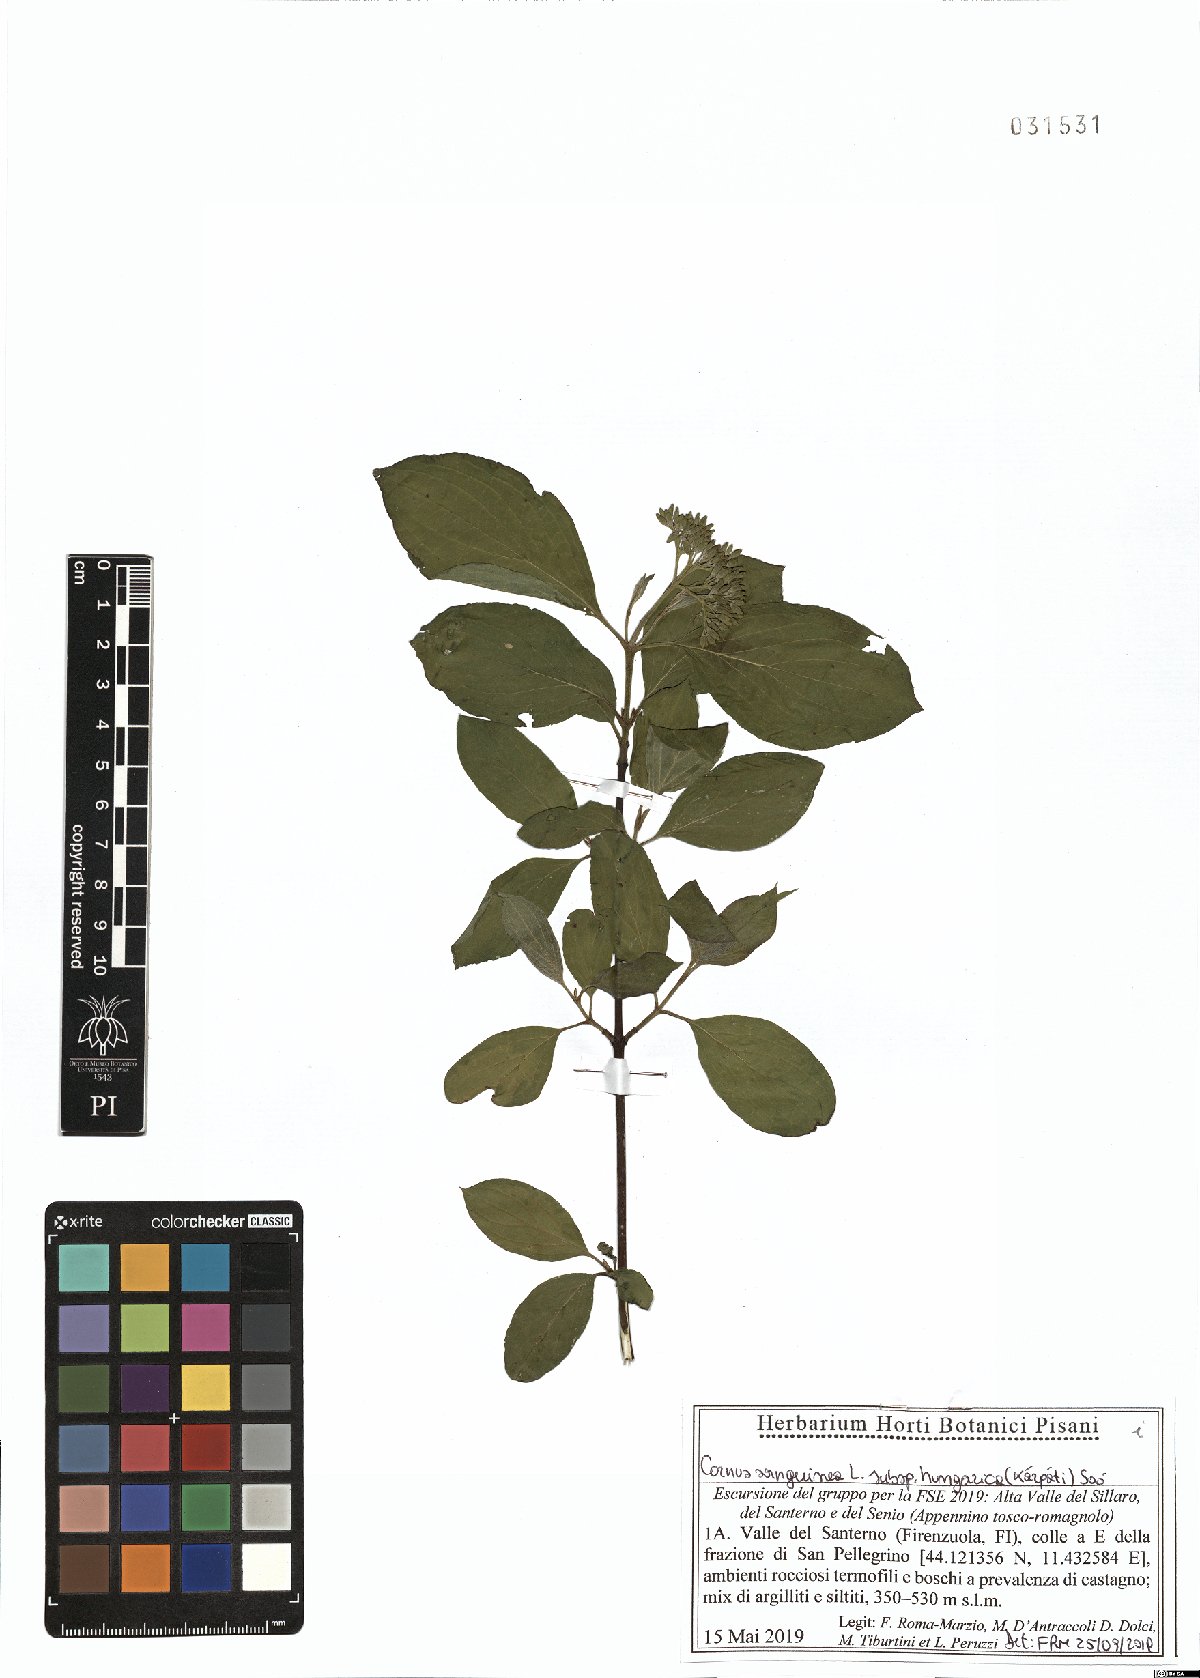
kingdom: Plantae
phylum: Tracheophyta
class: Magnoliopsida
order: Cornales
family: Cornaceae
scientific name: Cornaceae
